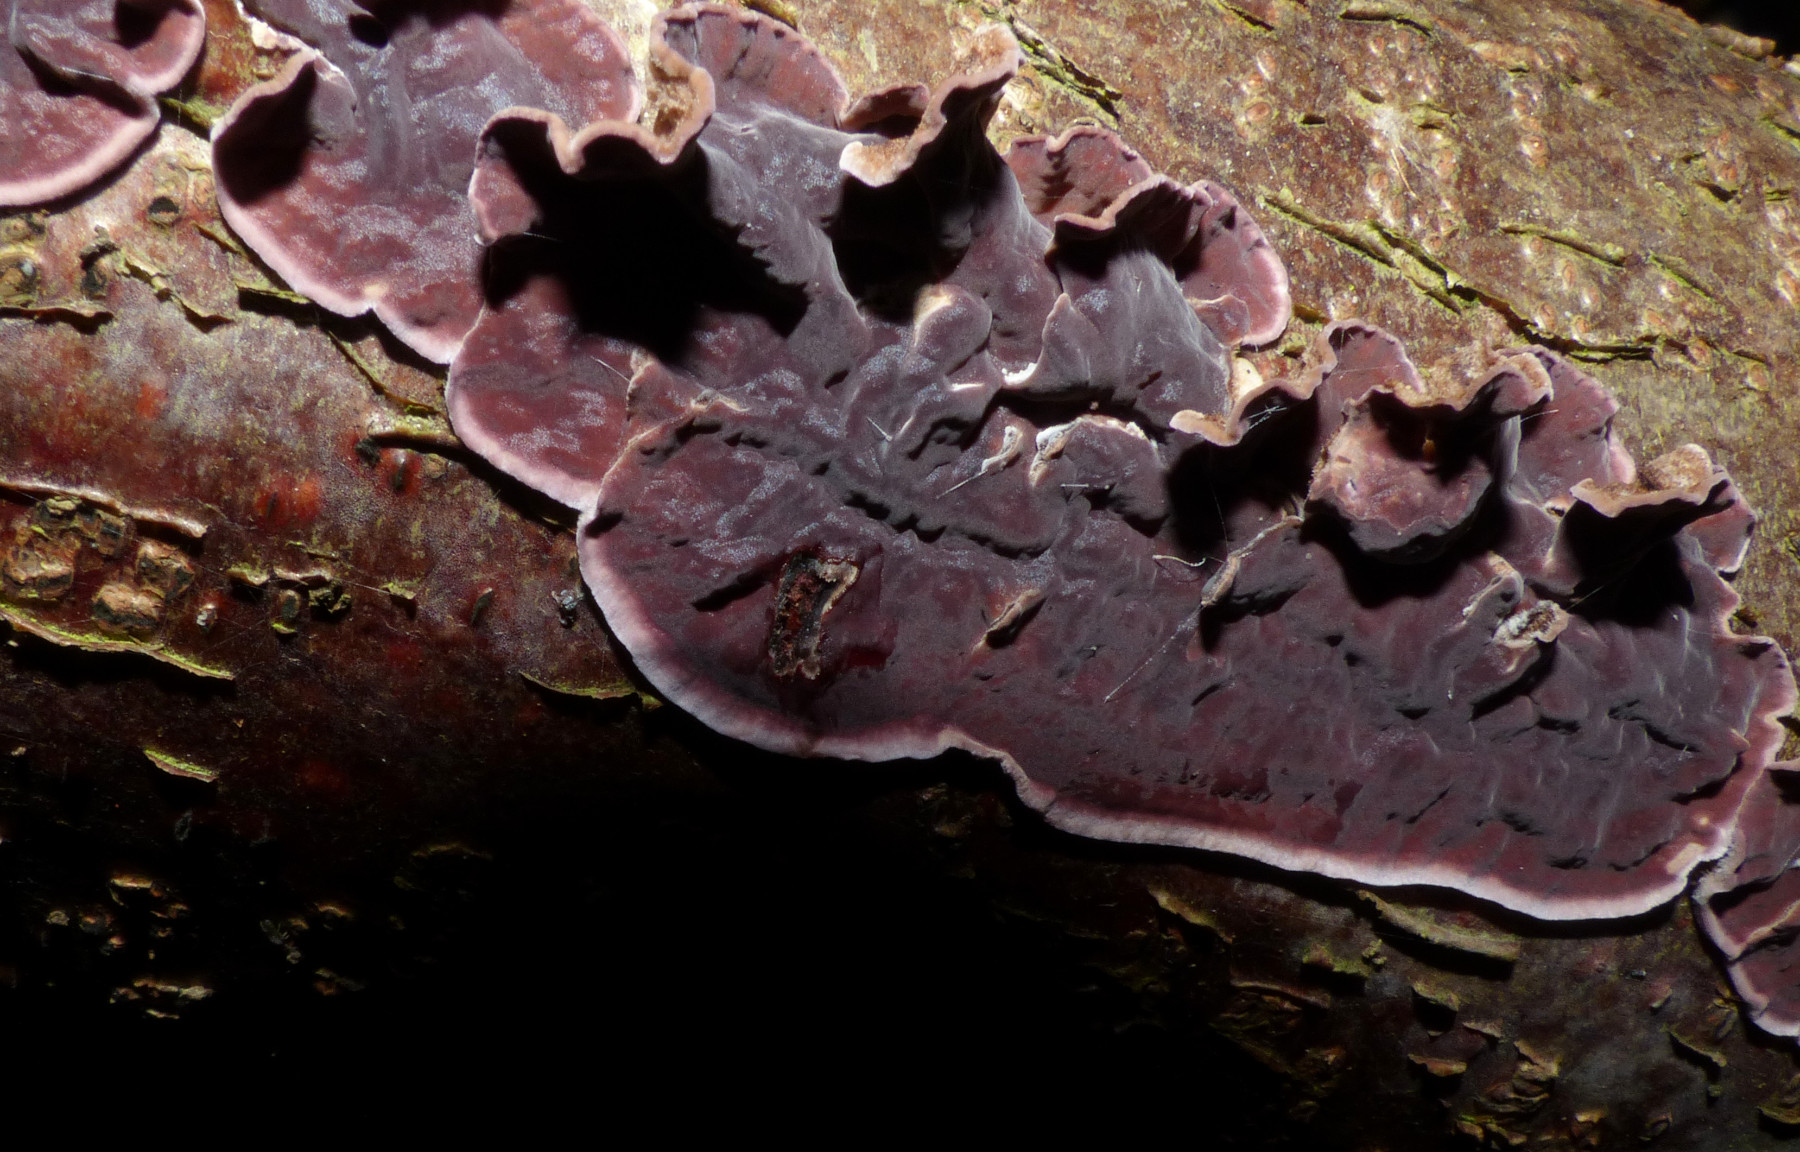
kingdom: Fungi
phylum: Basidiomycota
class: Agaricomycetes
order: Agaricales
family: Cyphellaceae
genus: Chondrostereum
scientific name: Chondrostereum purpureum
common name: purpurlædersvamp
